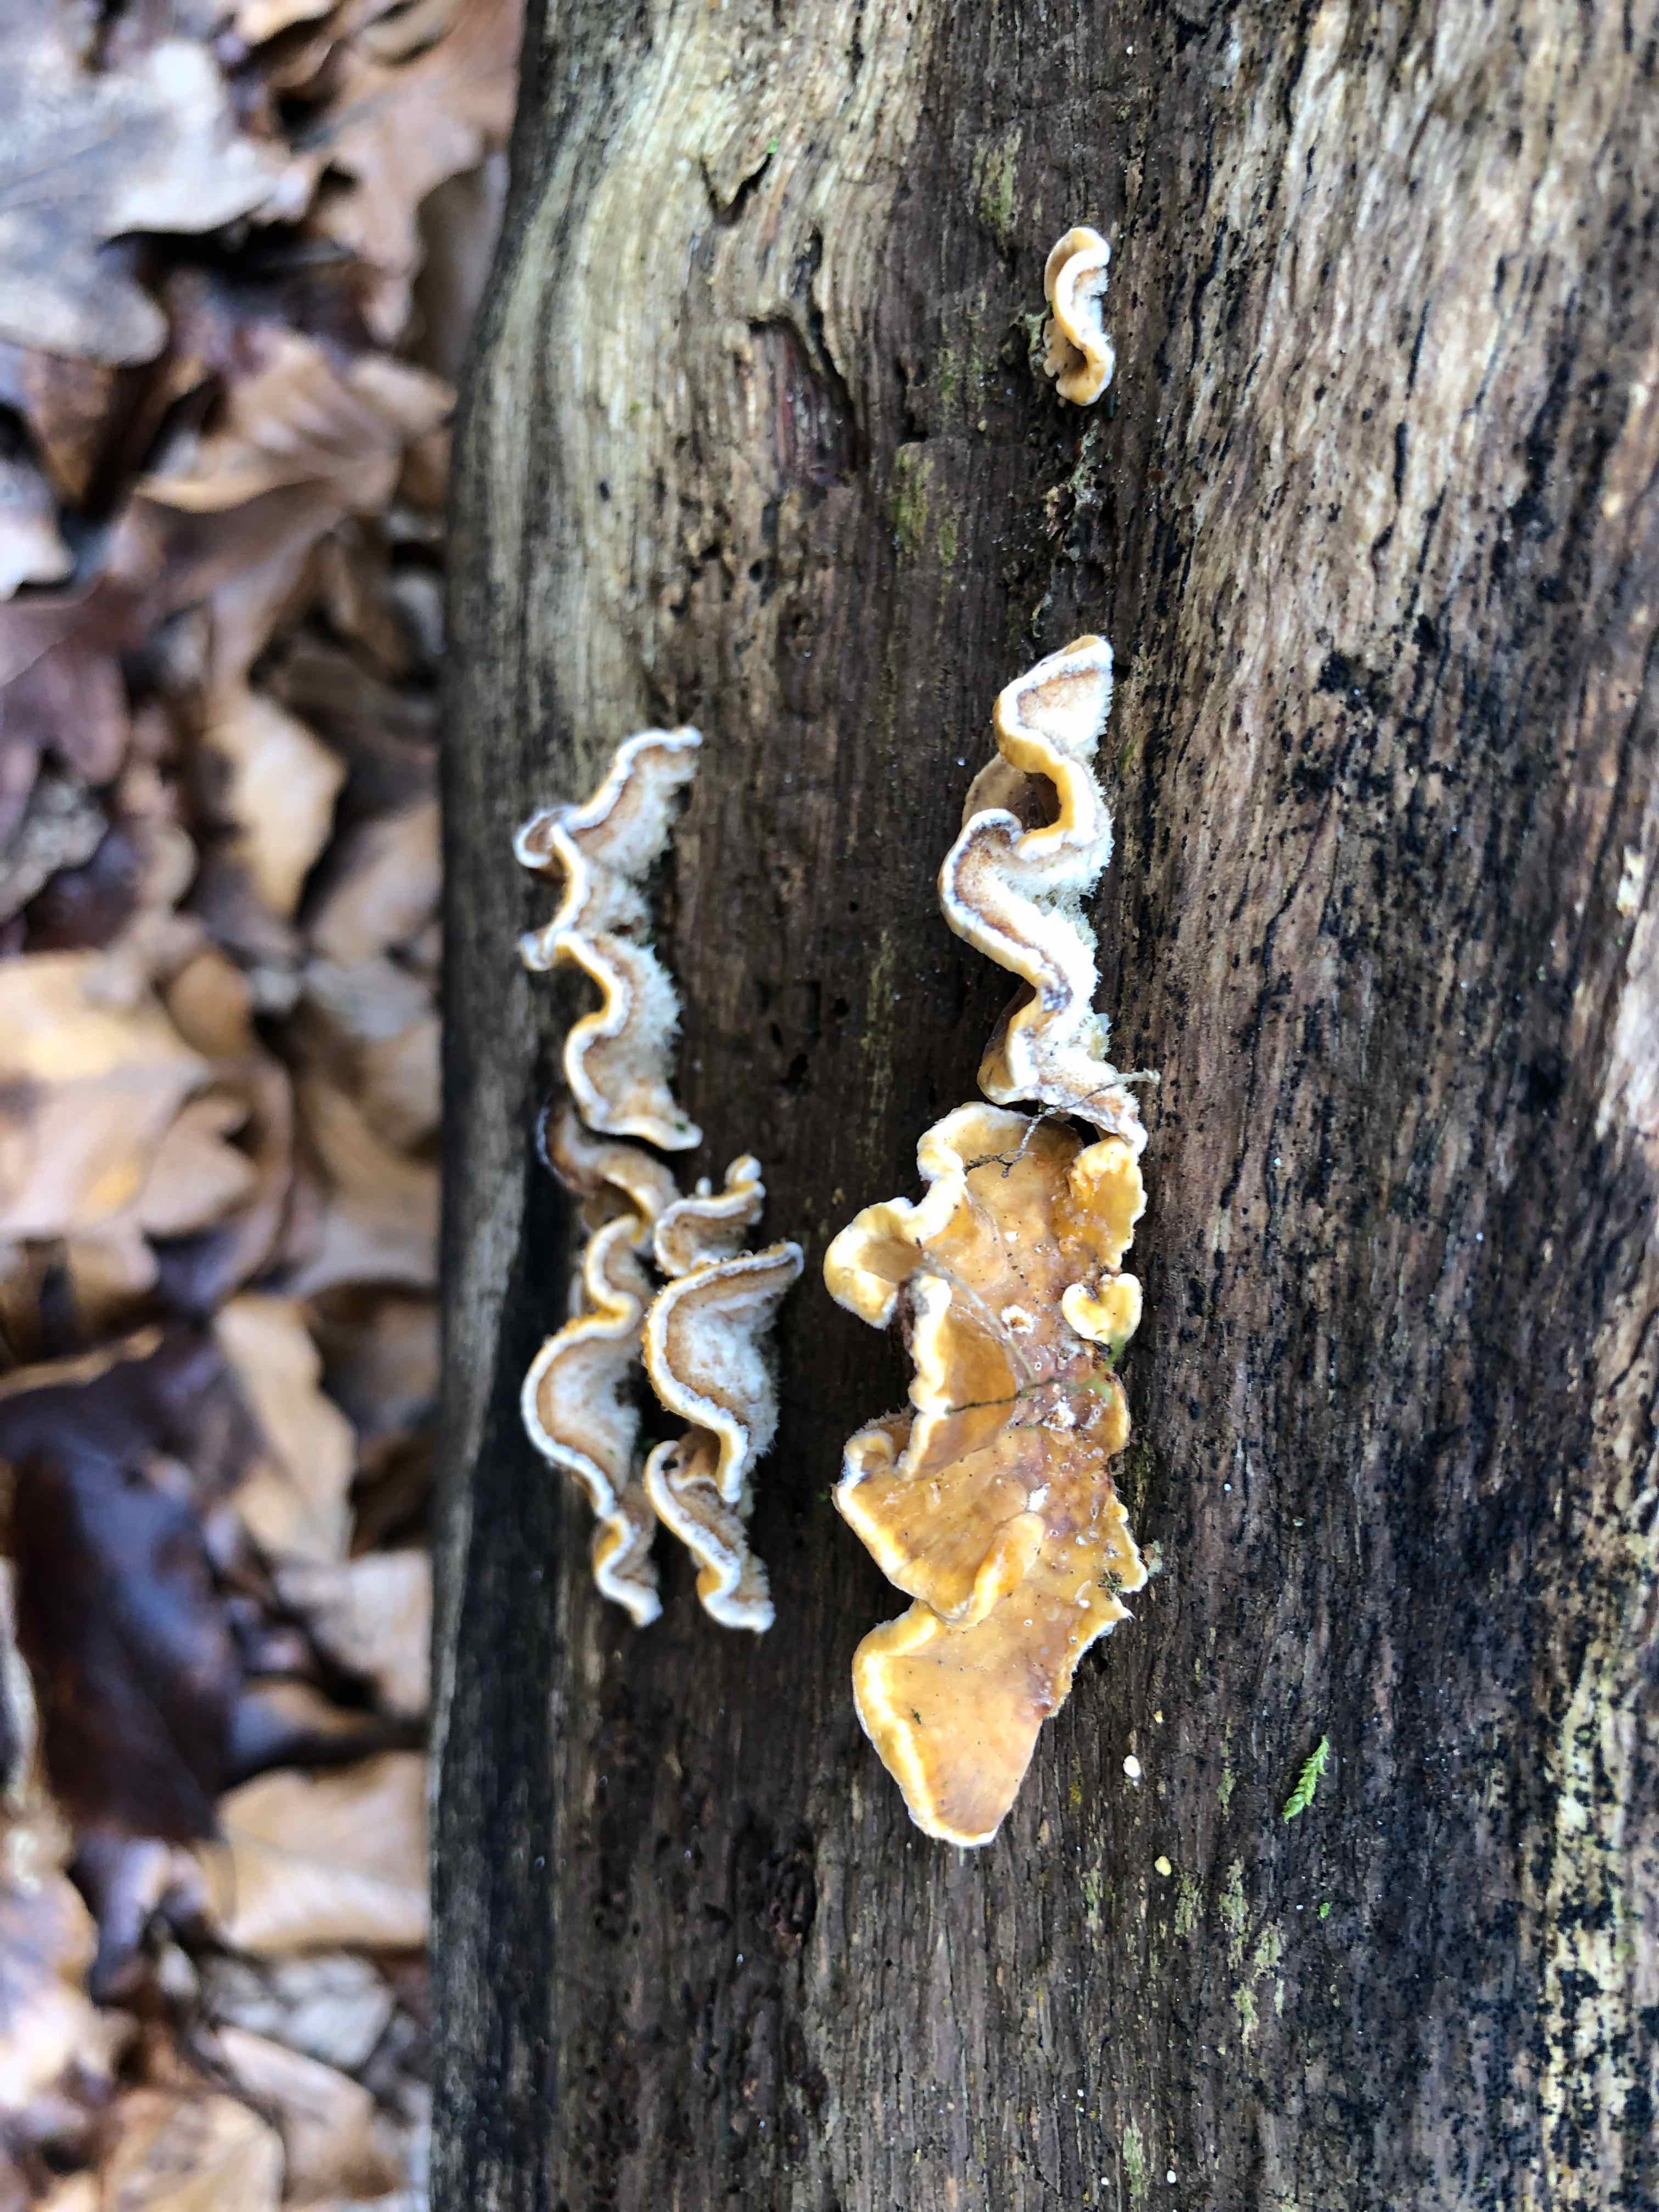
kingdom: Fungi
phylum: Basidiomycota
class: Agaricomycetes
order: Russulales
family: Stereaceae
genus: Stereum
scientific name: Stereum hirsutum
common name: håret lædersvamp
